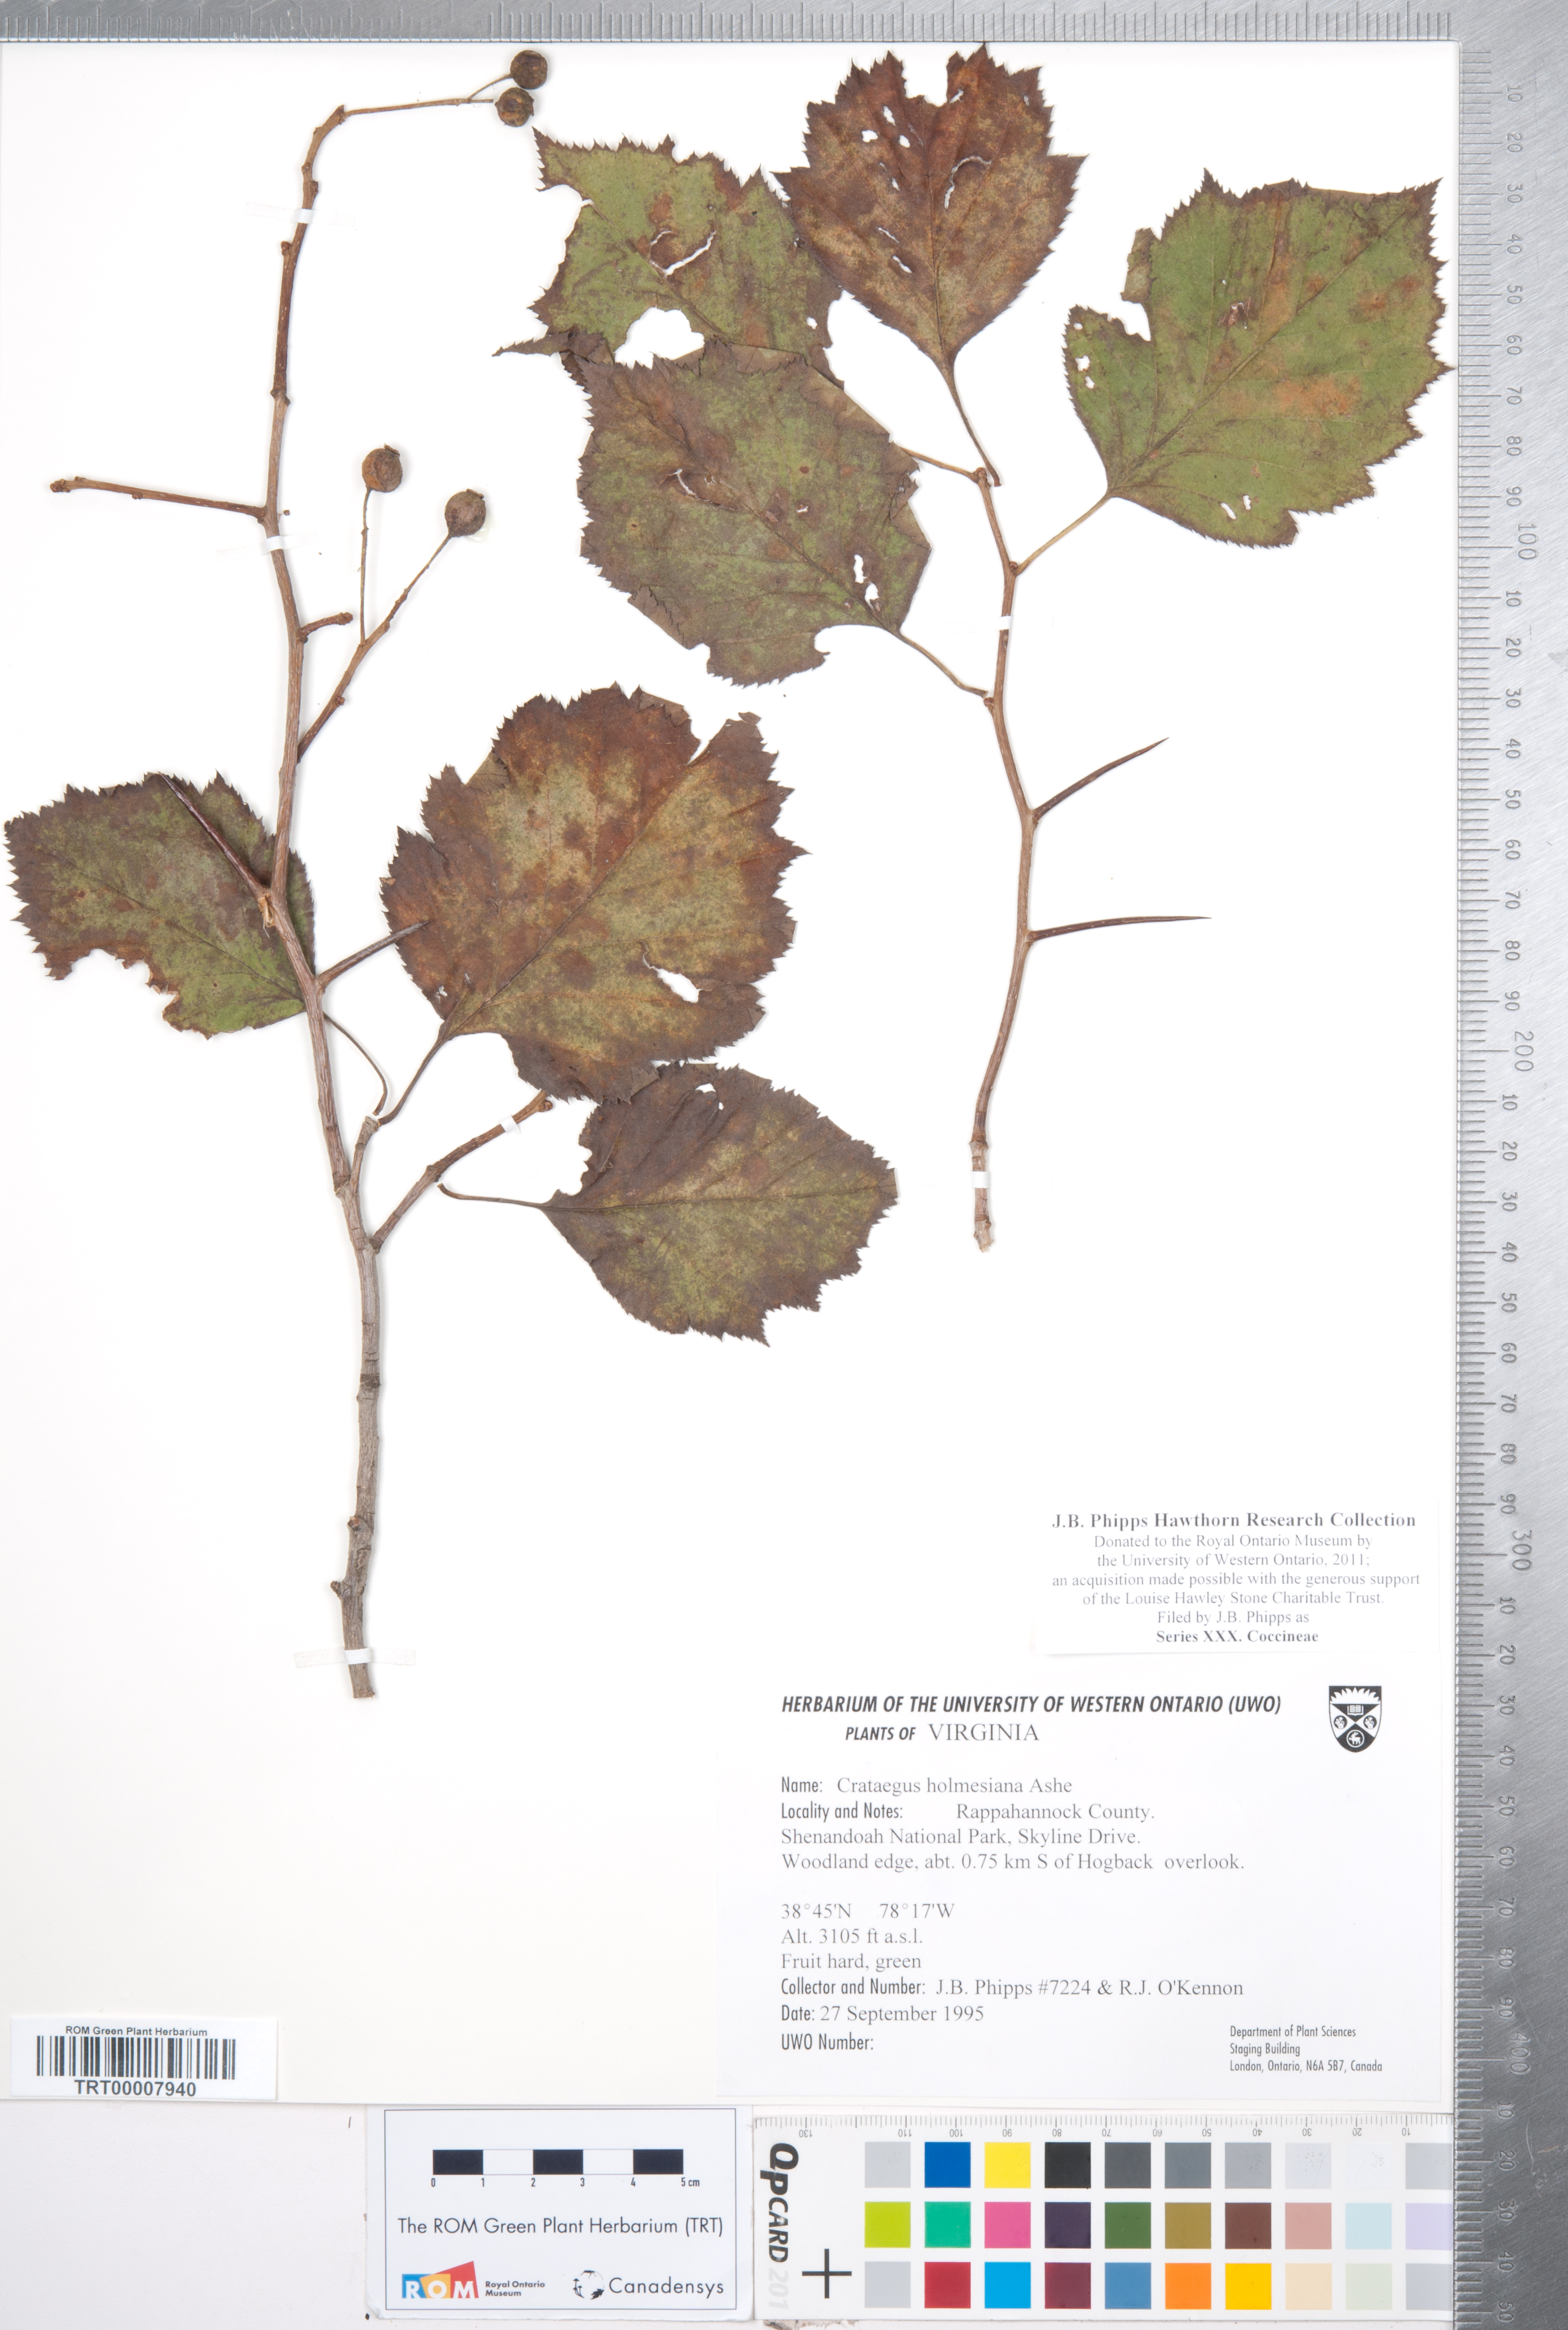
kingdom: Plantae
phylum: Tracheophyta
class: Magnoliopsida
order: Rosales
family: Rosaceae
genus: Crataegus
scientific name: Crataegus
